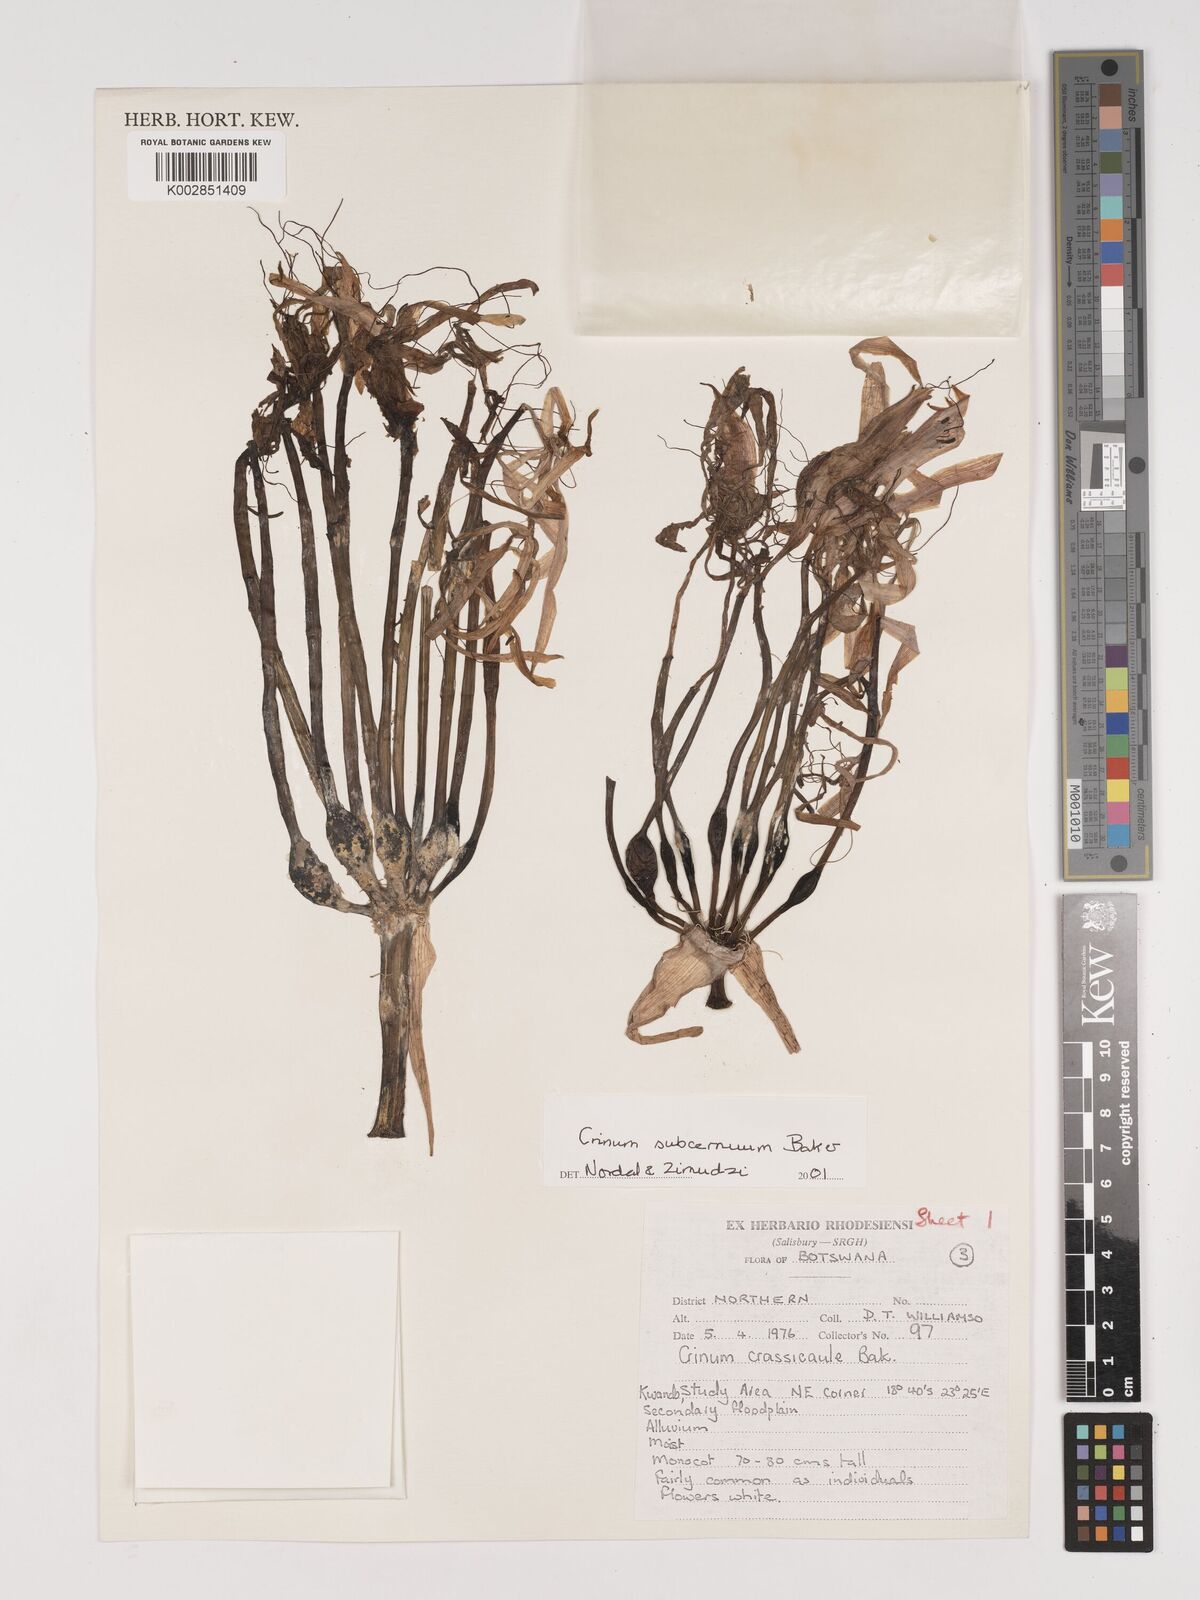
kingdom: Plantae
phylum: Tracheophyta
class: Liliopsida
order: Asparagales
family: Amaryllidaceae
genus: Crinum
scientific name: Crinum subcernuum
